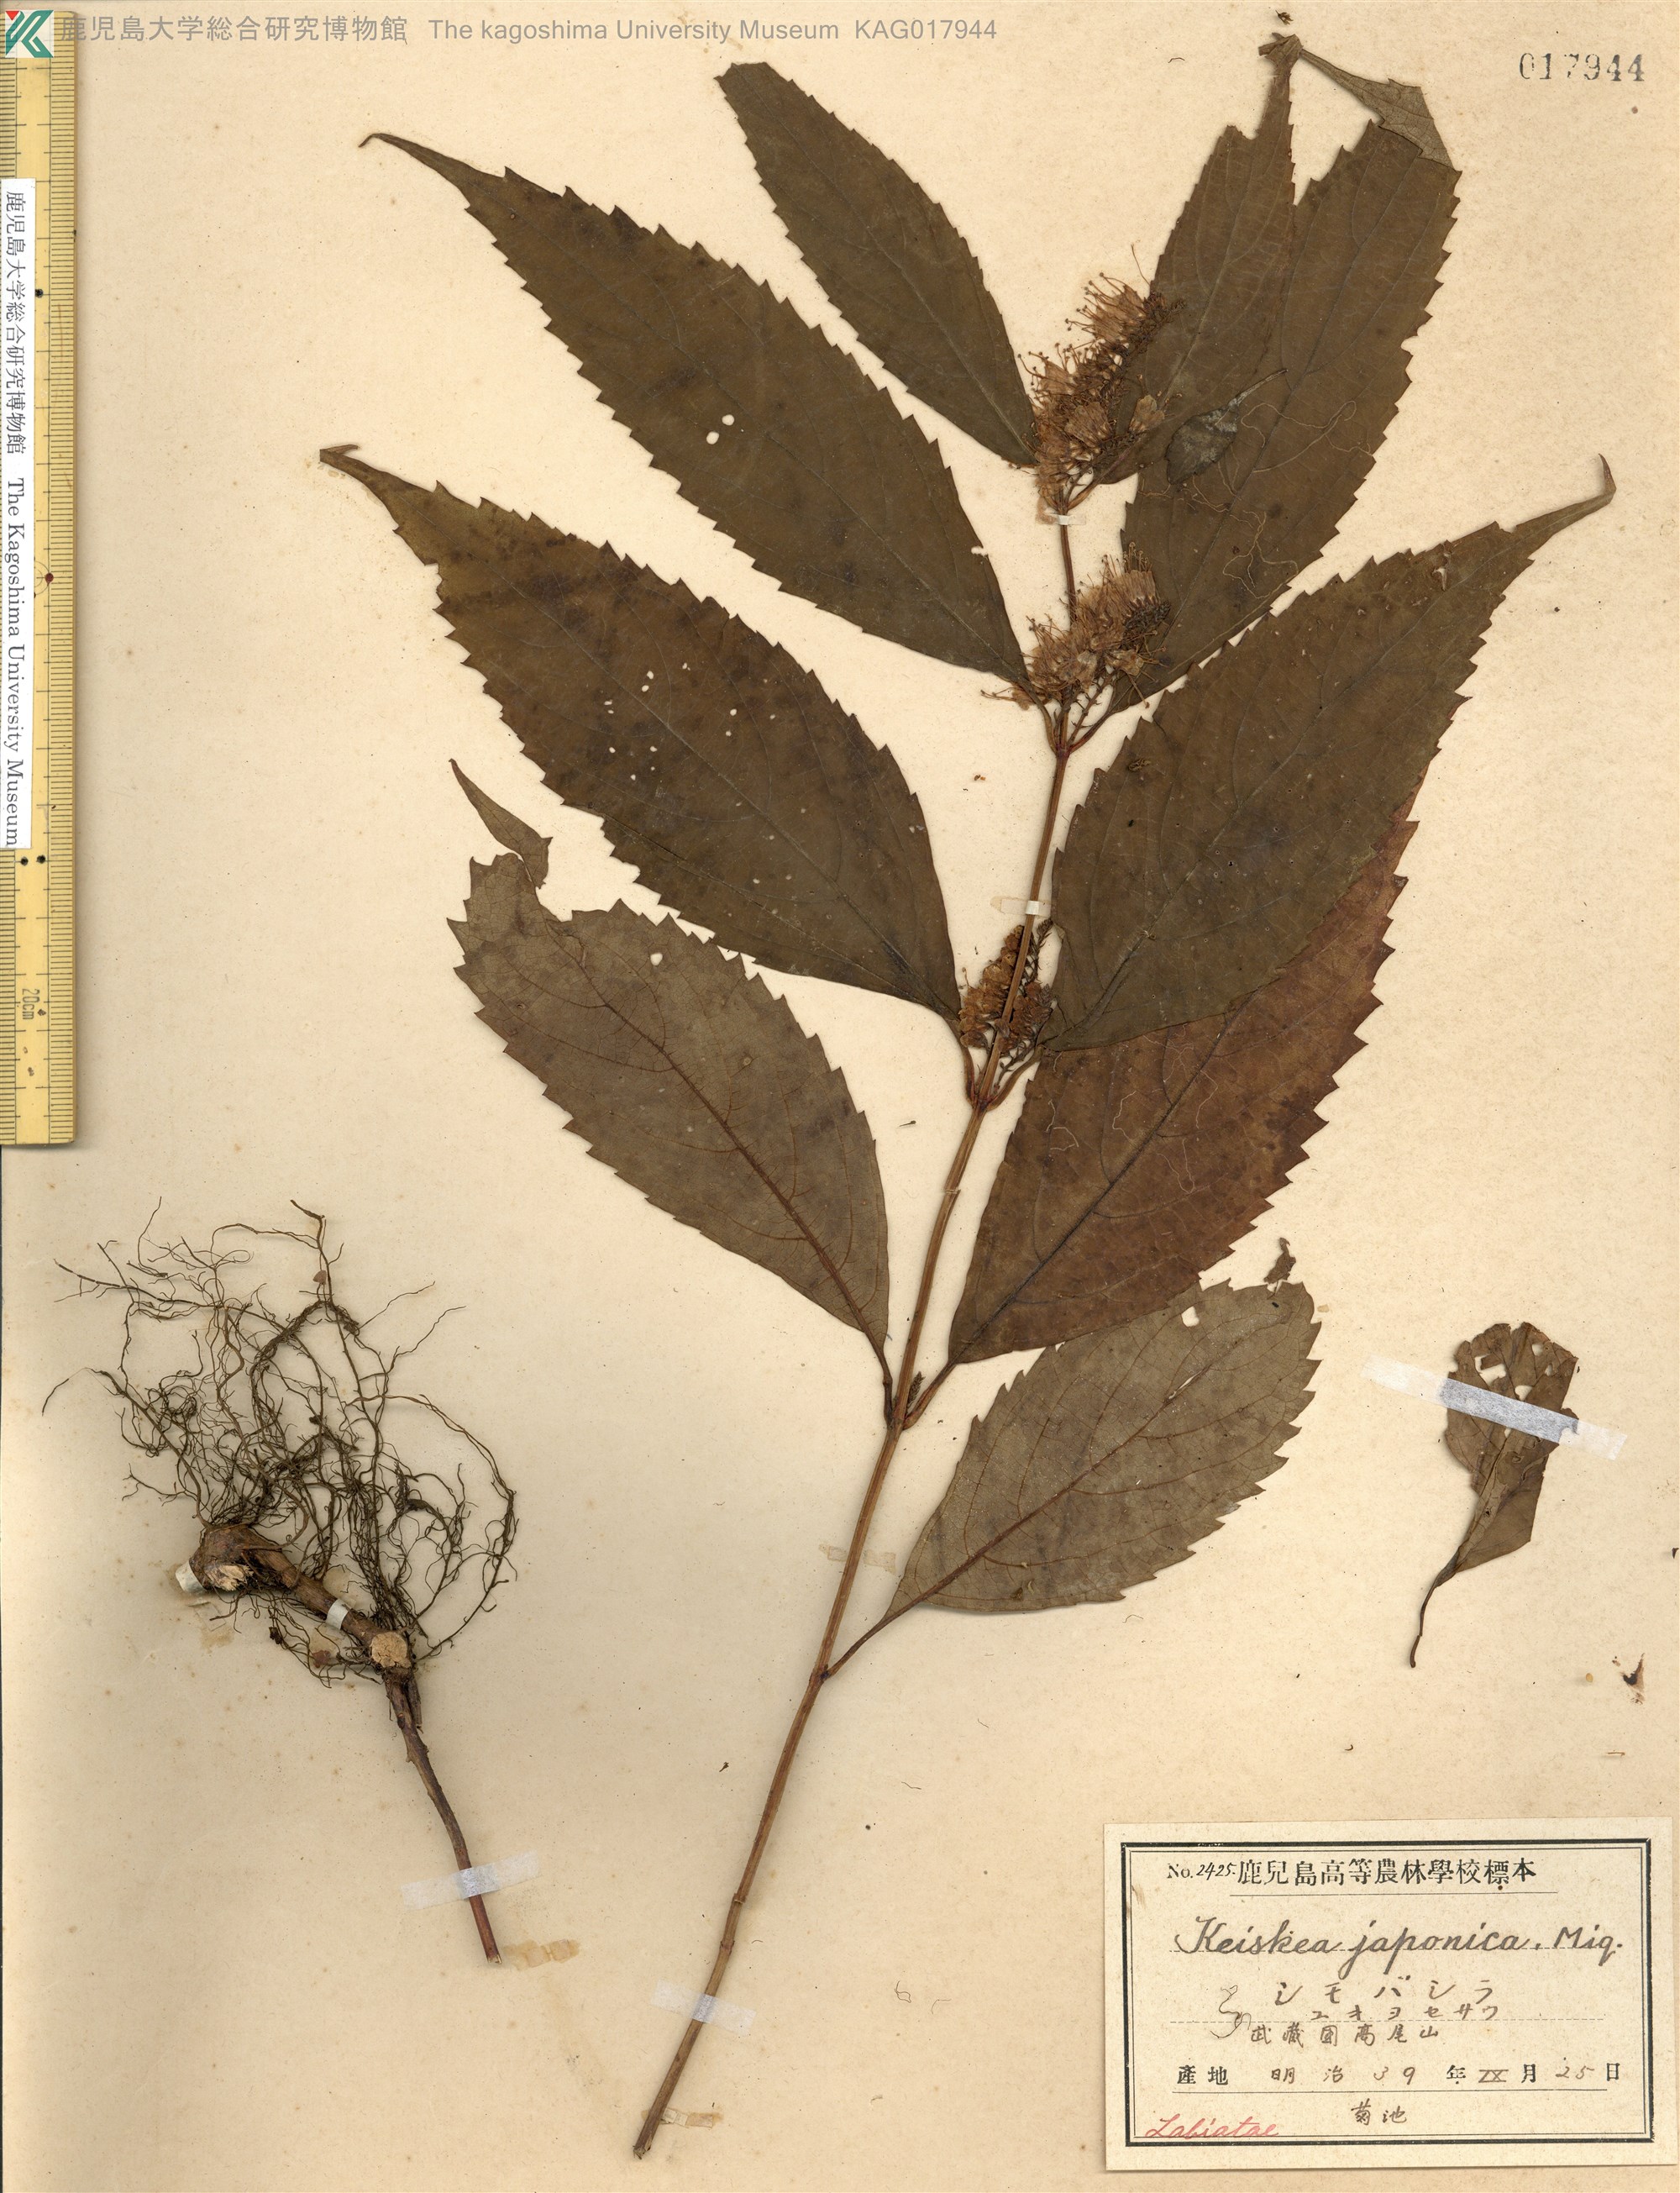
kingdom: Plantae
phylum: Tracheophyta
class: Magnoliopsida
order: Lamiales
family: Lamiaceae
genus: Collinsonia
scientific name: Collinsonia japonica
